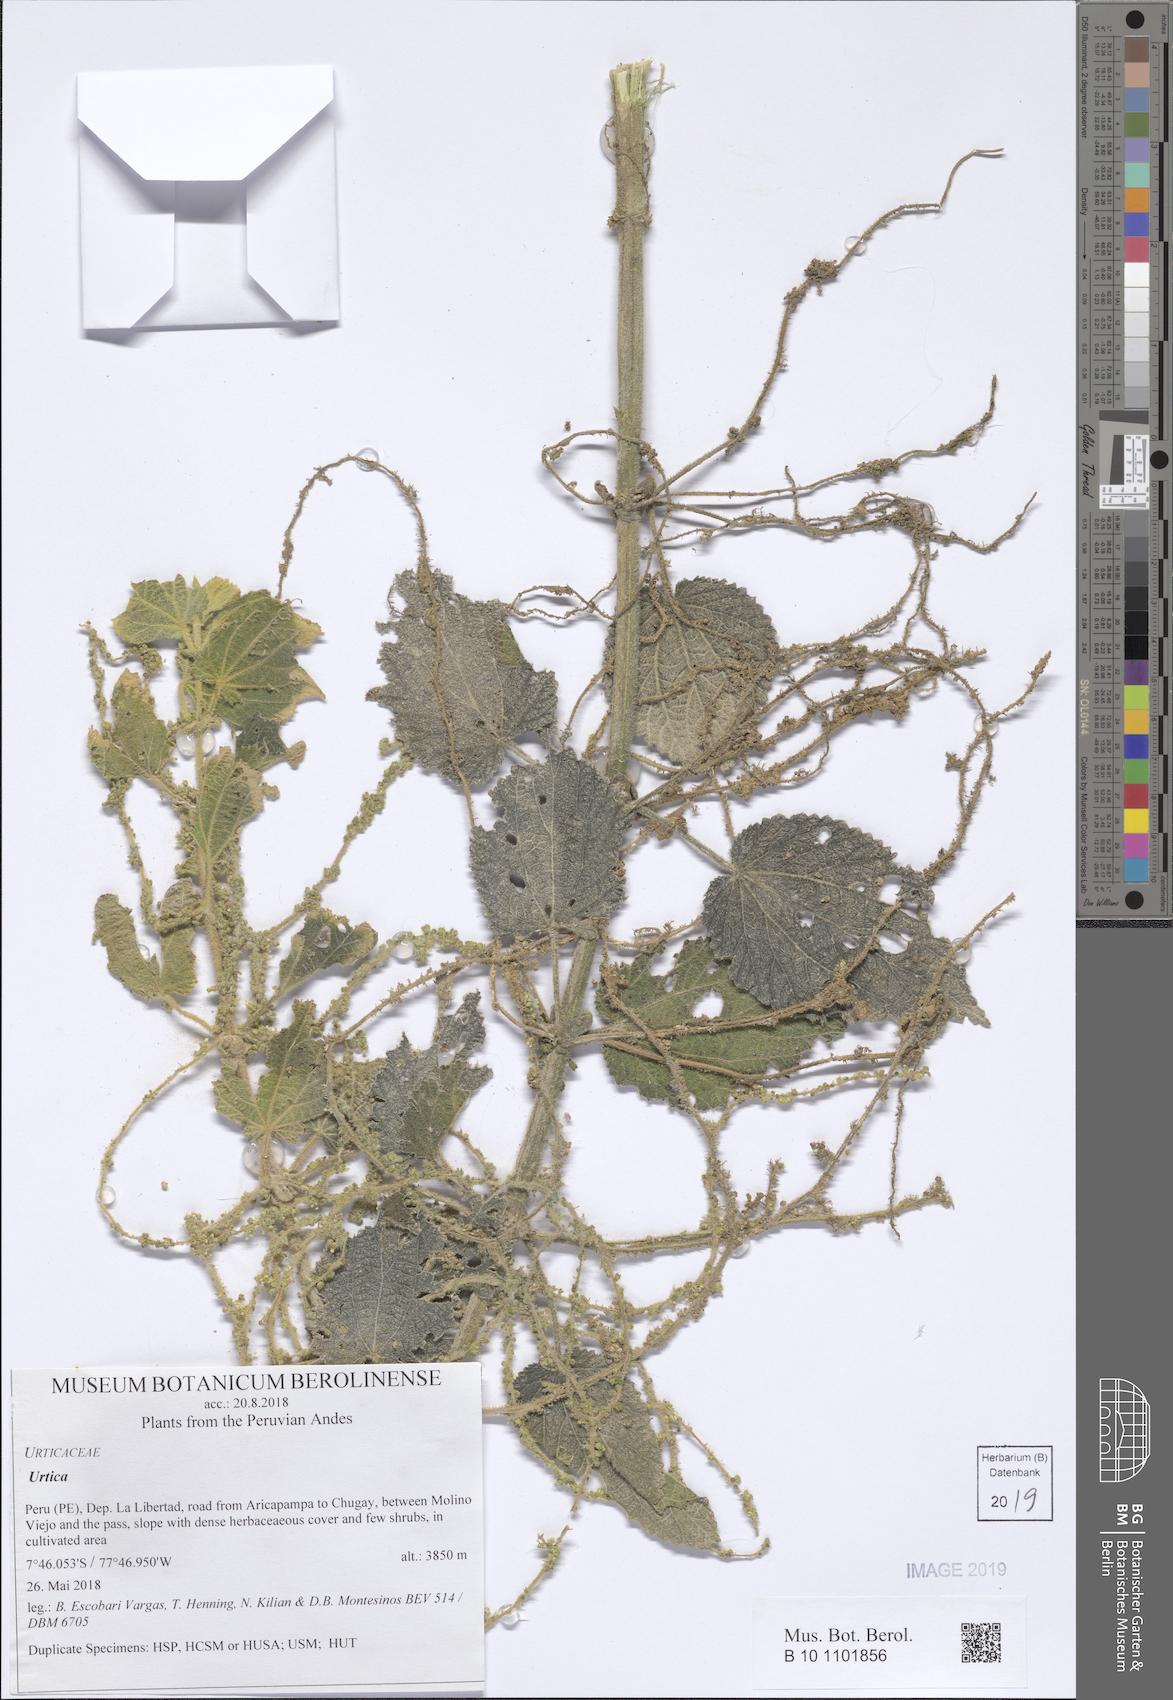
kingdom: Plantae
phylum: Tracheophyta
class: Magnoliopsida
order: Rosales
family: Urticaceae
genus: Urtica
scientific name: Urtica
